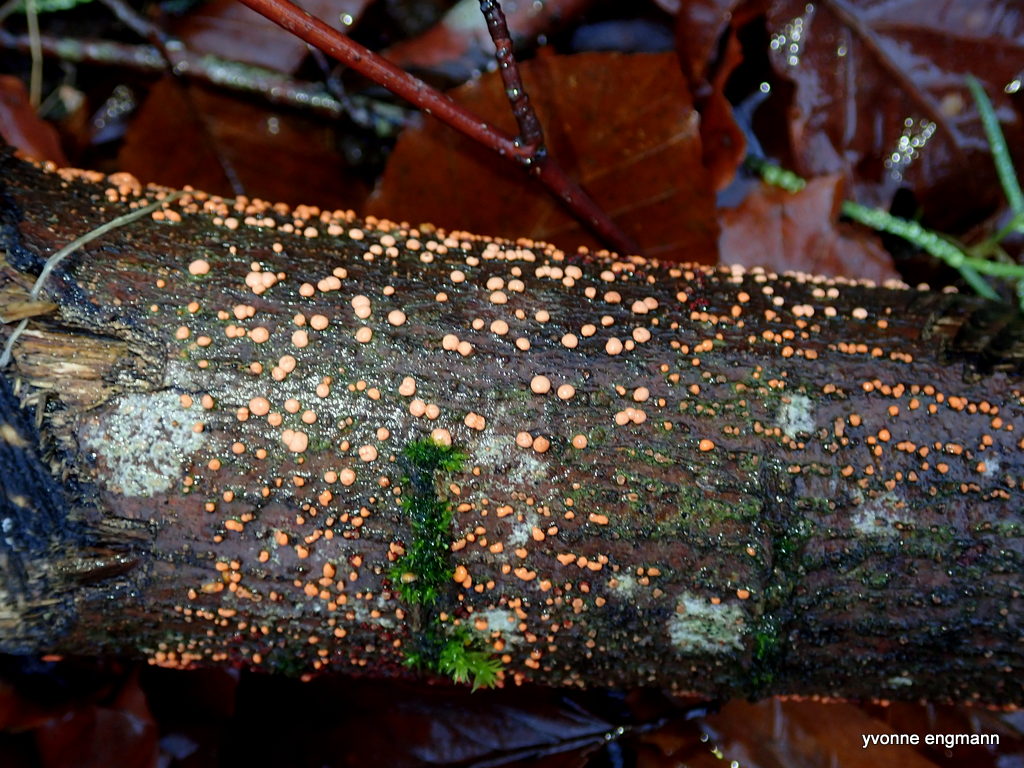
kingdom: Fungi
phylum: Ascomycota
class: Sordariomycetes
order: Hypocreales
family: Nectriaceae
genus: Nectria
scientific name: Nectria cinnabarina
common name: almindelig cinnobersvamp
